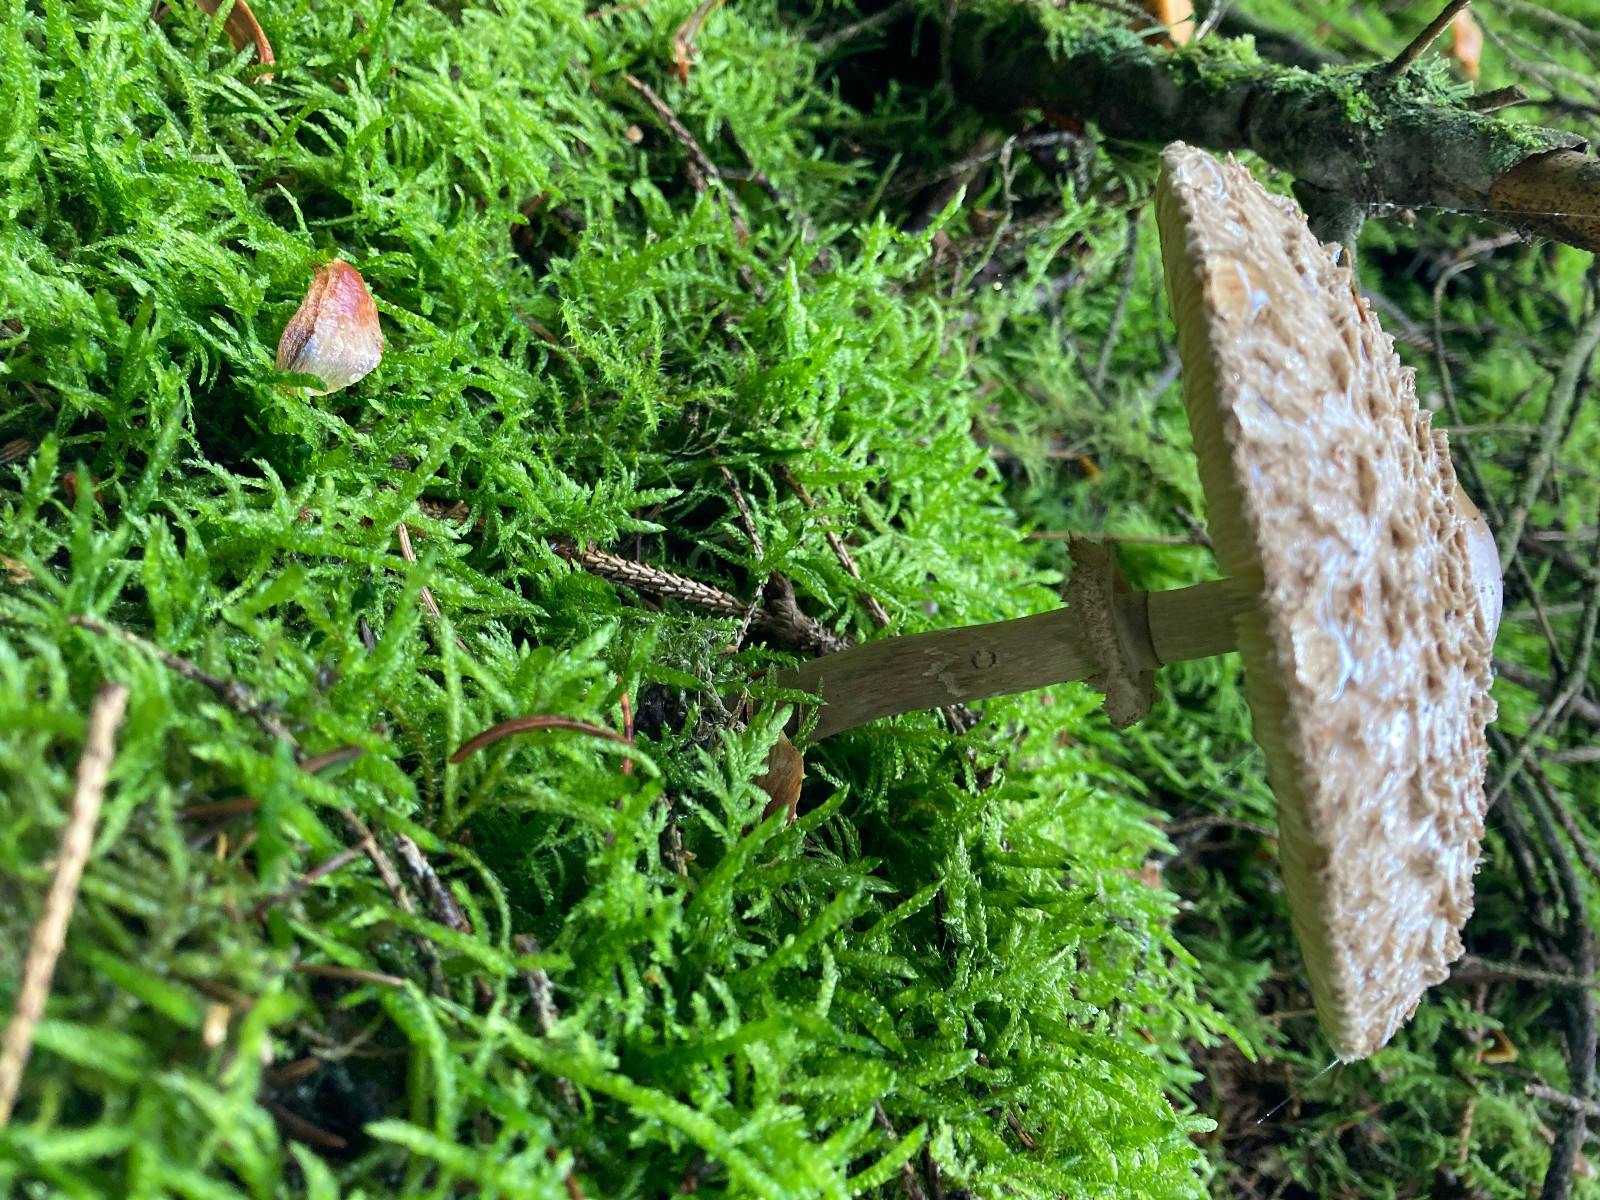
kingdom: Fungi
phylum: Basidiomycota
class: Agaricomycetes
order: Agaricales
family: Agaricaceae
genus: Chlorophyllum
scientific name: Chlorophyllum olivieri
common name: almindelig rabarberhat
